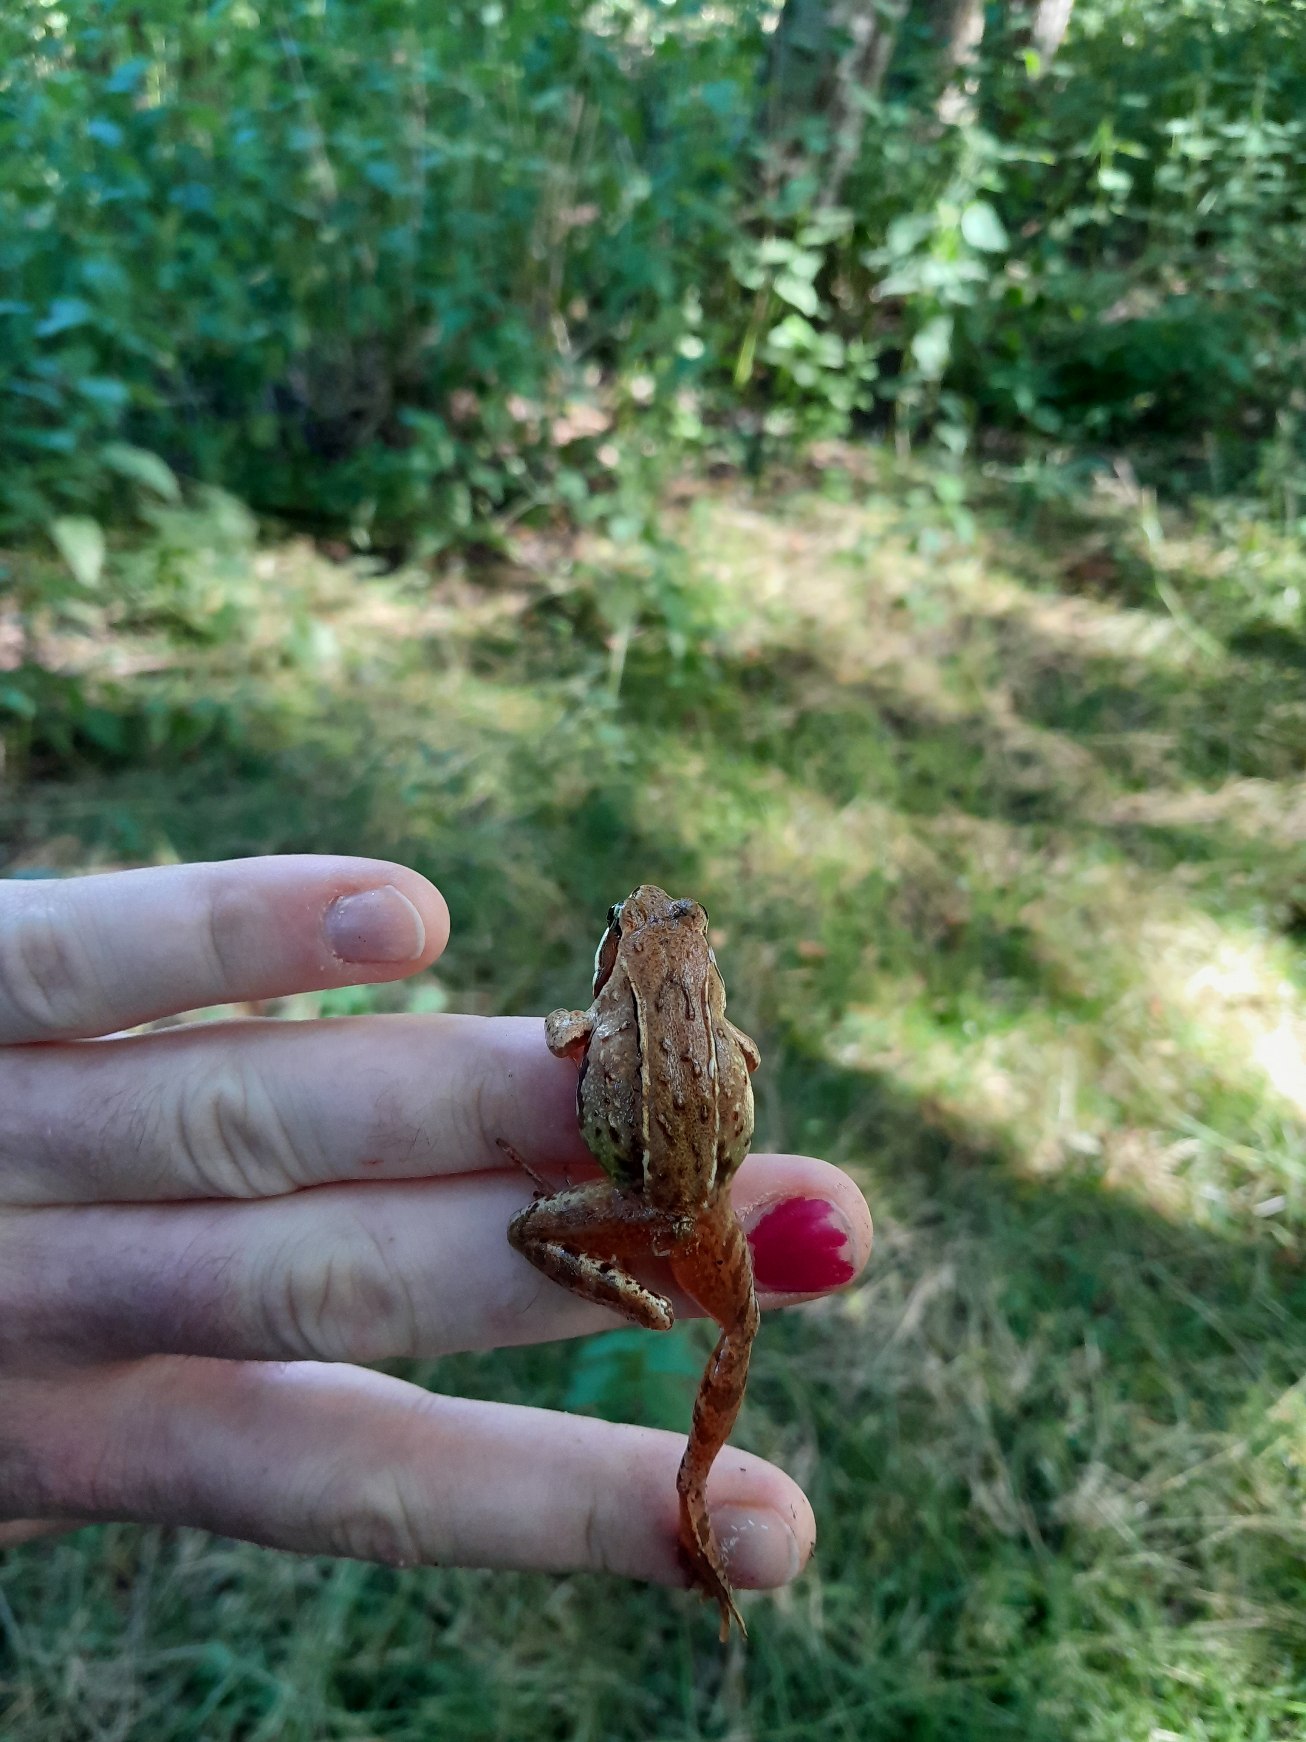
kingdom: Animalia
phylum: Chordata
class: Amphibia
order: Anura
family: Ranidae
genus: Rana
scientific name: Rana arvalis
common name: Spidssnudet frø
